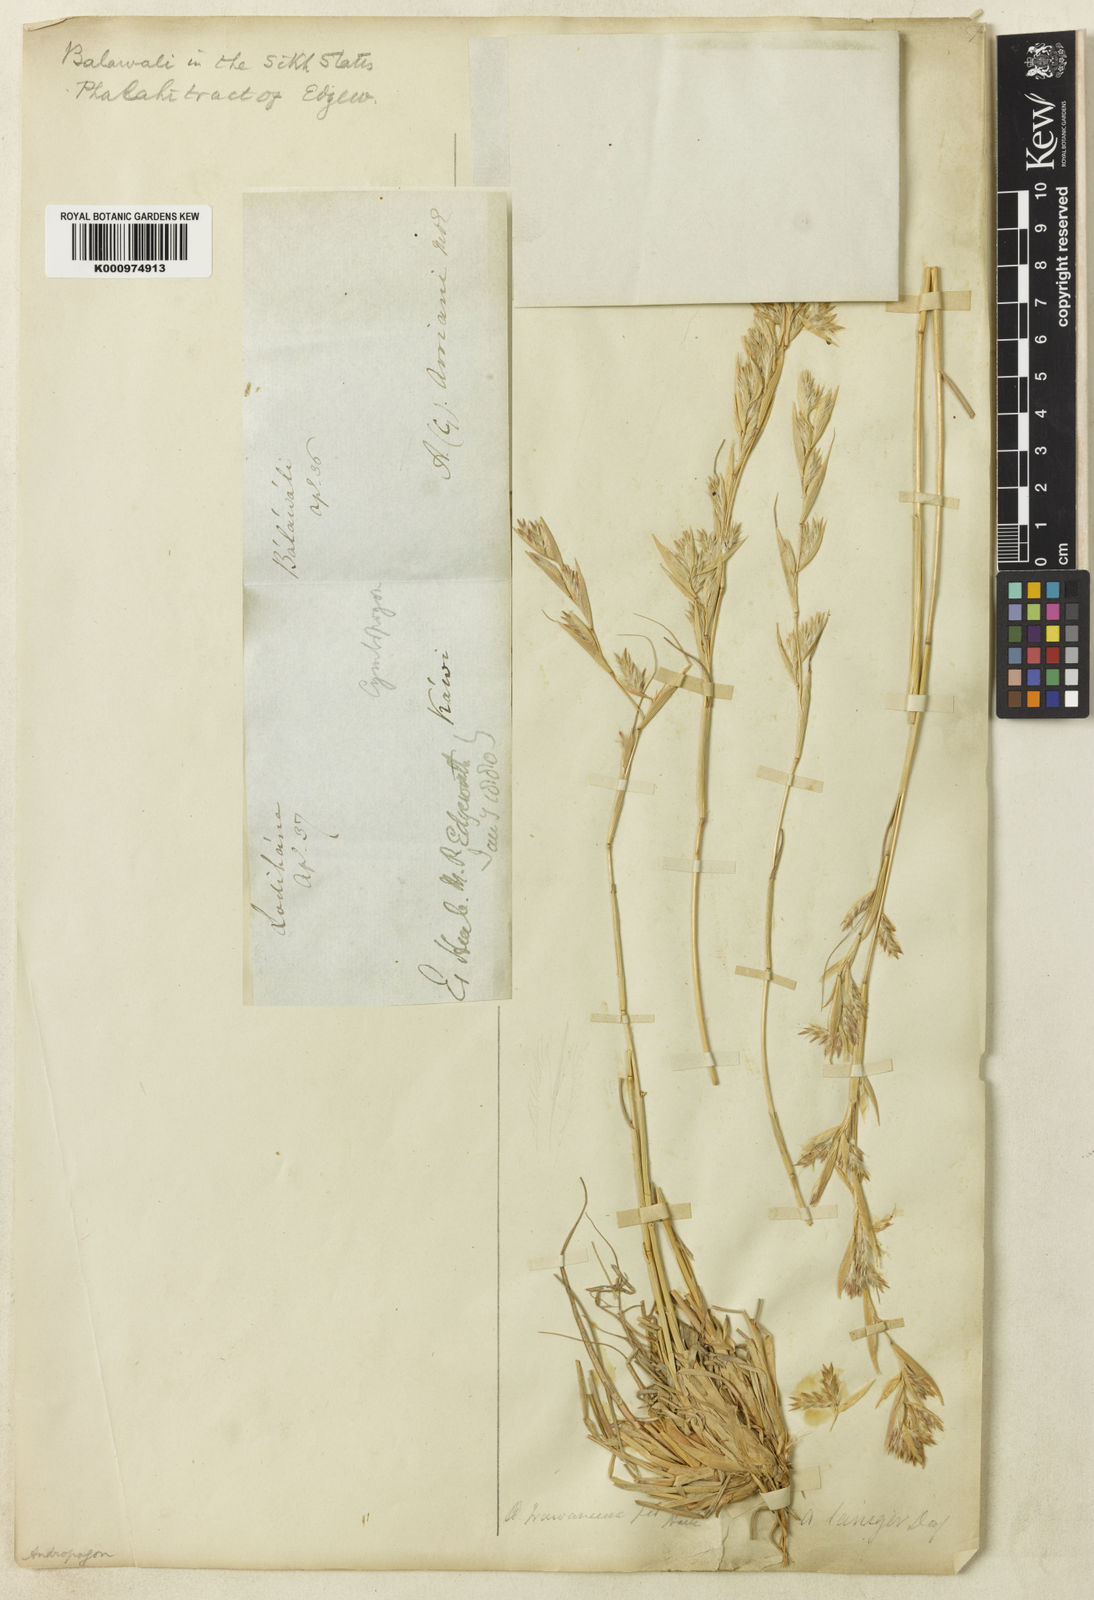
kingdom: Plantae
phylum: Tracheophyta
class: Liliopsida
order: Poales
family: Poaceae
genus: Cymbopogon
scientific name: Cymbopogon iwarancusa
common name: Iwarancusa grass
